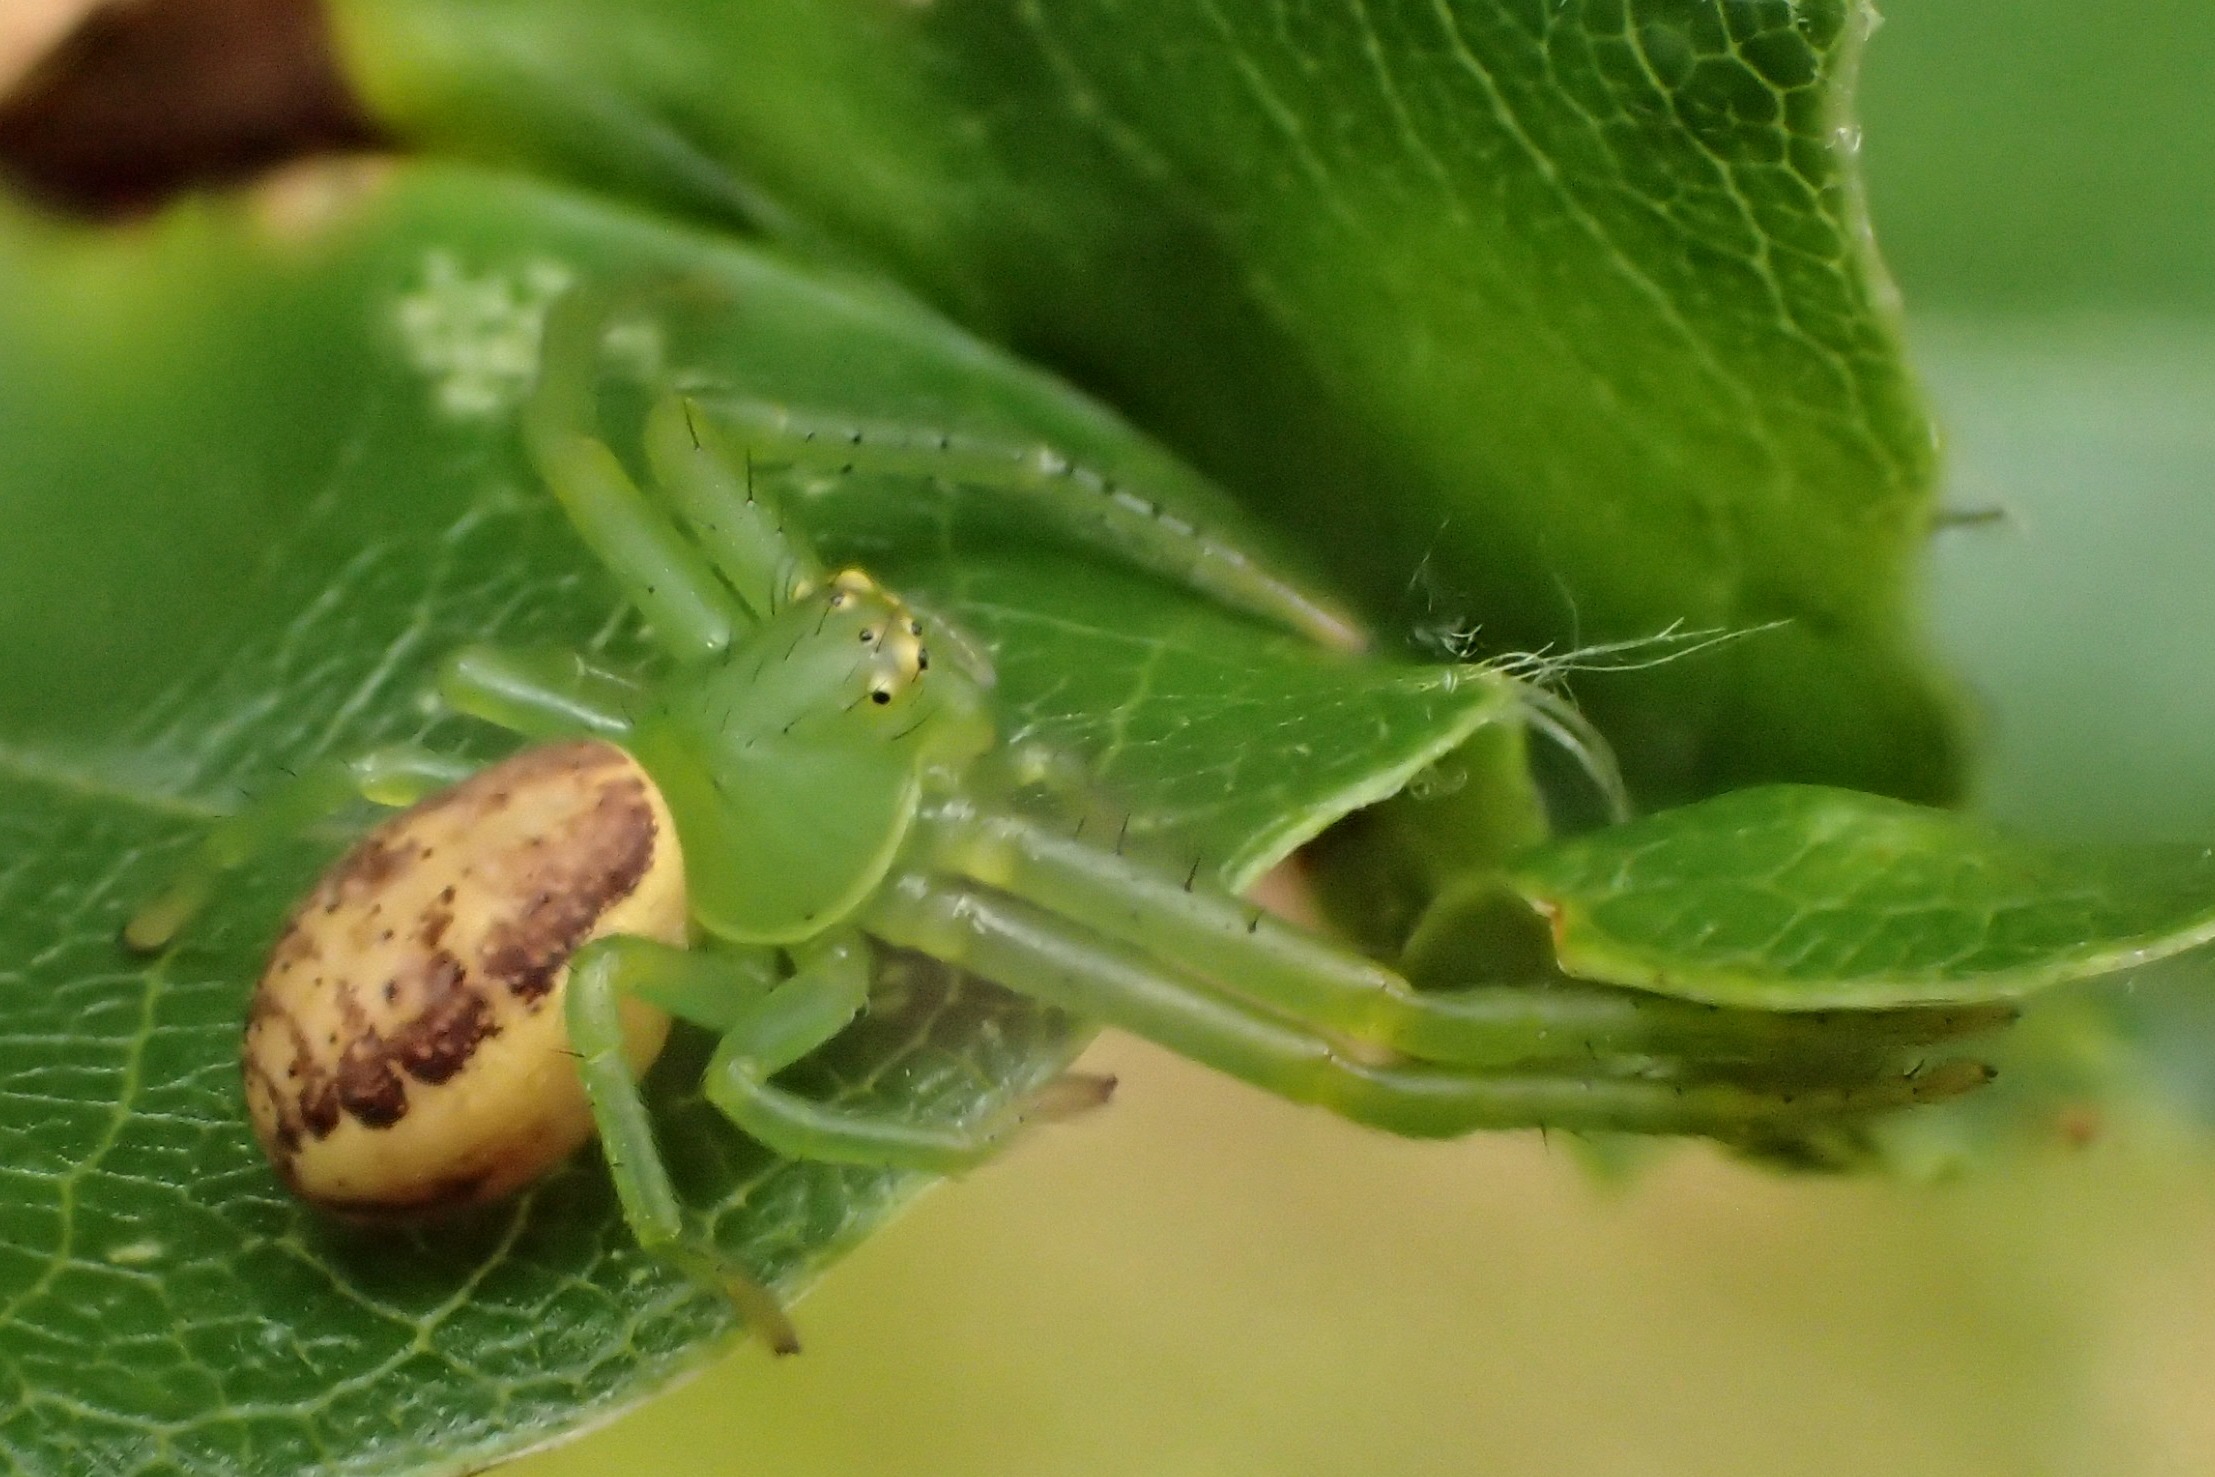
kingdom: Animalia
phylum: Arthropoda
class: Arachnida
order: Araneae
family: Thomisidae
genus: Diaea
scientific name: Diaea dorsata
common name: Grøn krabbeedderkop
